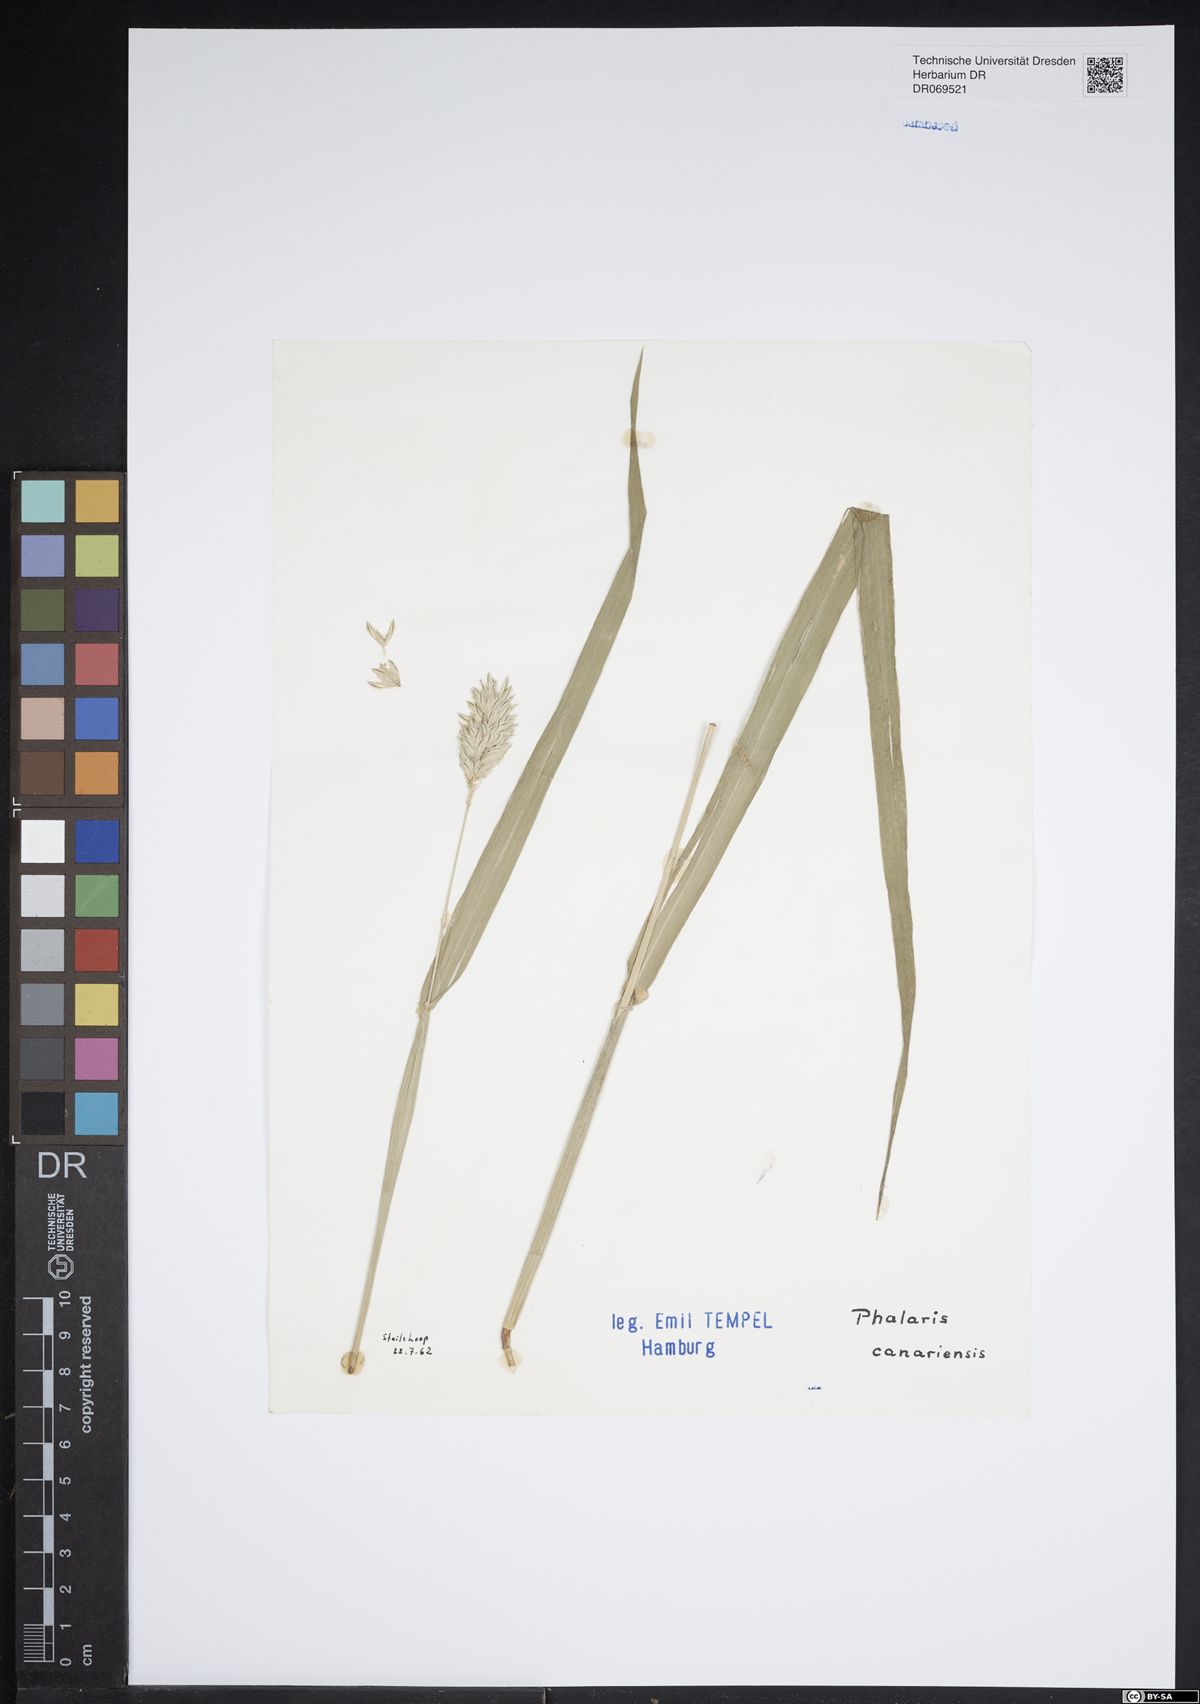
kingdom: Plantae
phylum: Tracheophyta
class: Liliopsida
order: Poales
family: Poaceae
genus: Phalaris
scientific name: Phalaris canariensis
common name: Annual canarygrass
